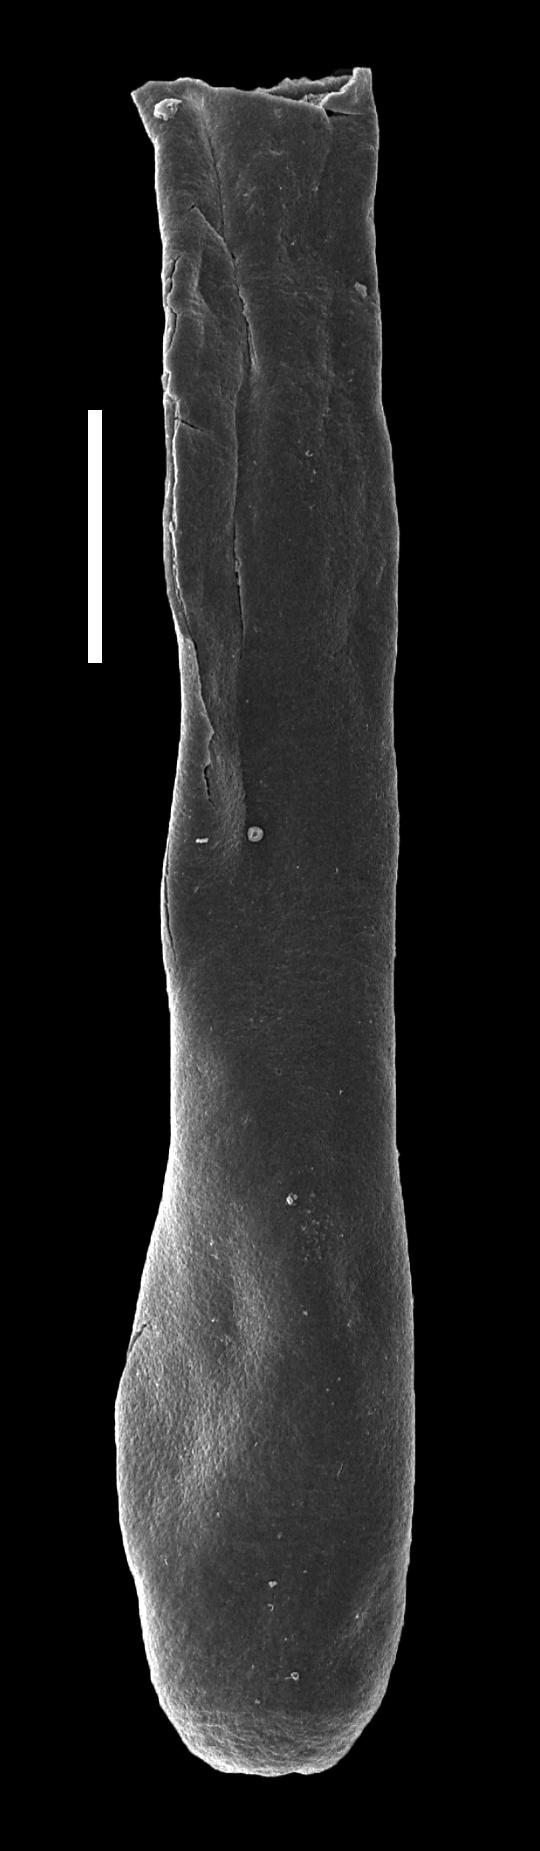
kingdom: Animalia
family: Conochitinidae
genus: Conochitina
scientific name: Conochitina
